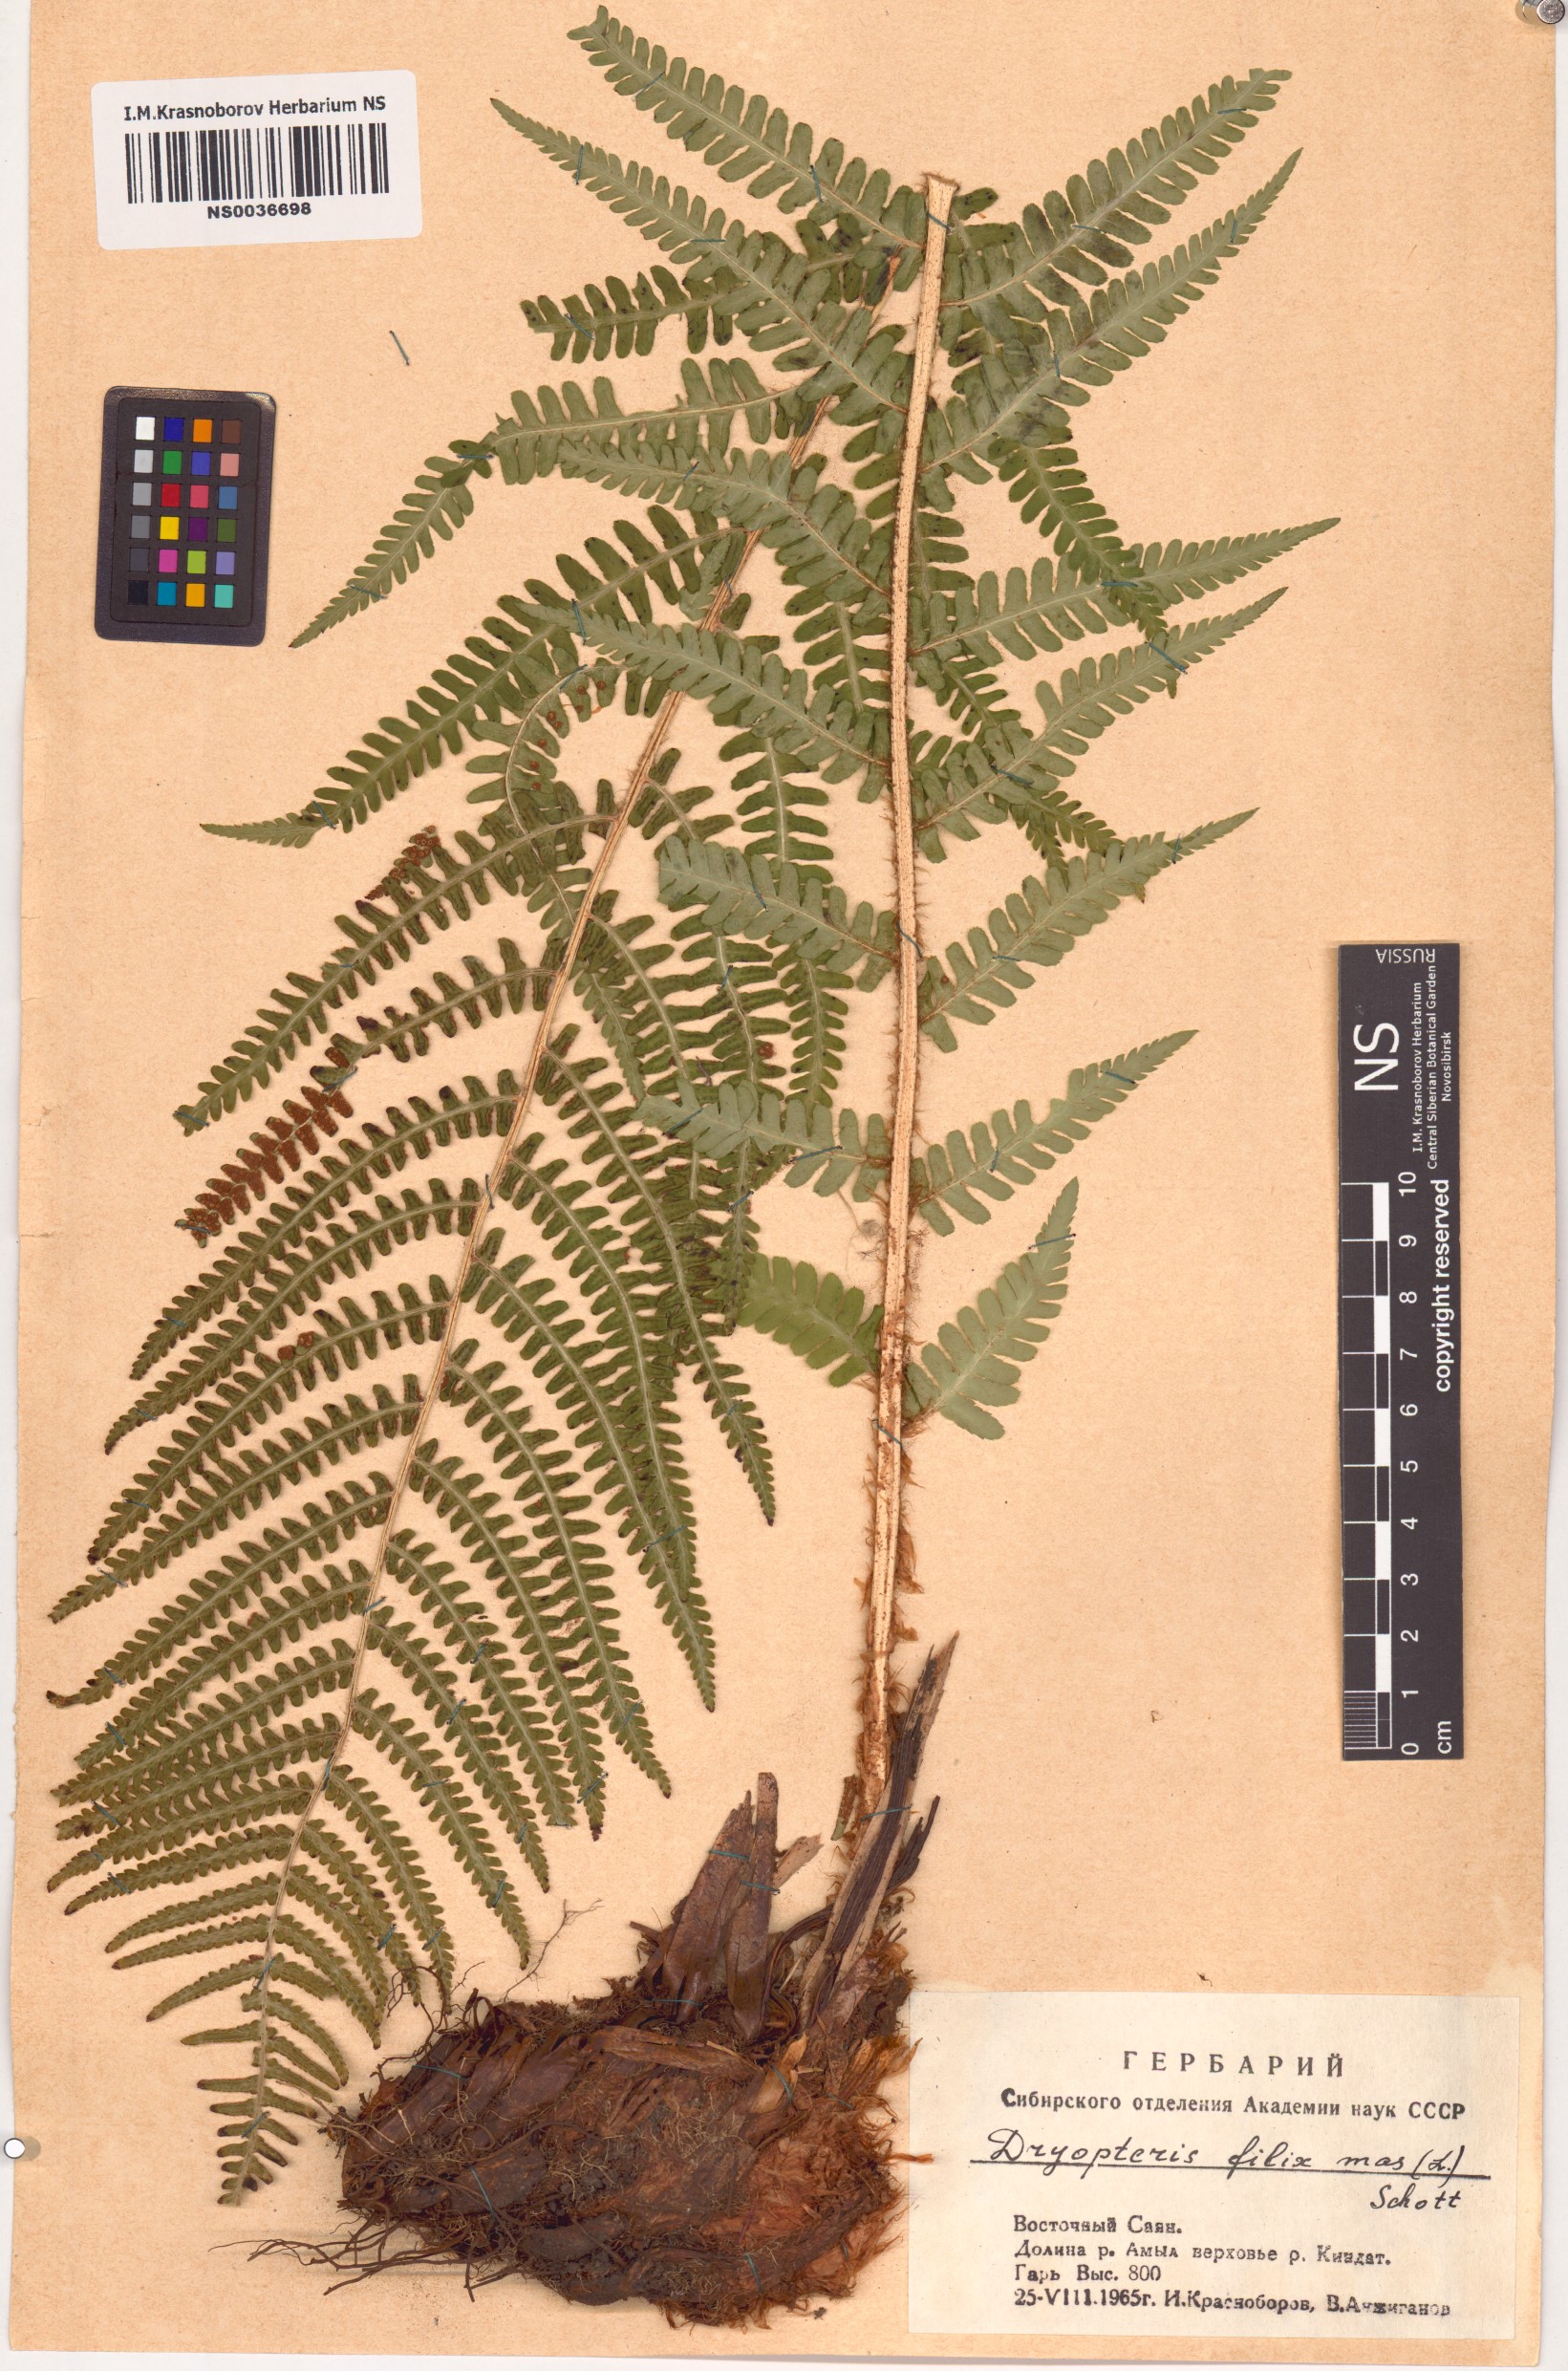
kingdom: Plantae
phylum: Tracheophyta
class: Polypodiopsida
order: Polypodiales
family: Dryopteridaceae
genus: Dryopteris
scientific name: Dryopteris filix-mas
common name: Male fern
